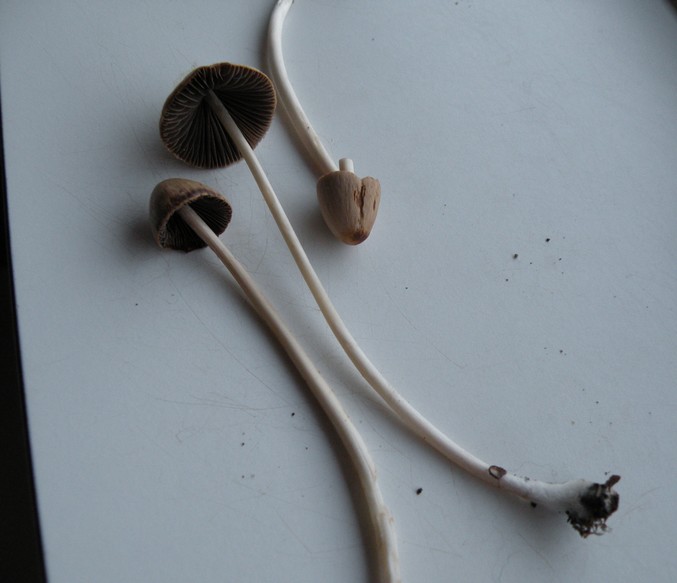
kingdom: Fungi
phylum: Basidiomycota
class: Agaricomycetes
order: Agaricales
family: Psathyrellaceae
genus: Parasola
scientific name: Parasola conopilea
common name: kegle-hjulhat
